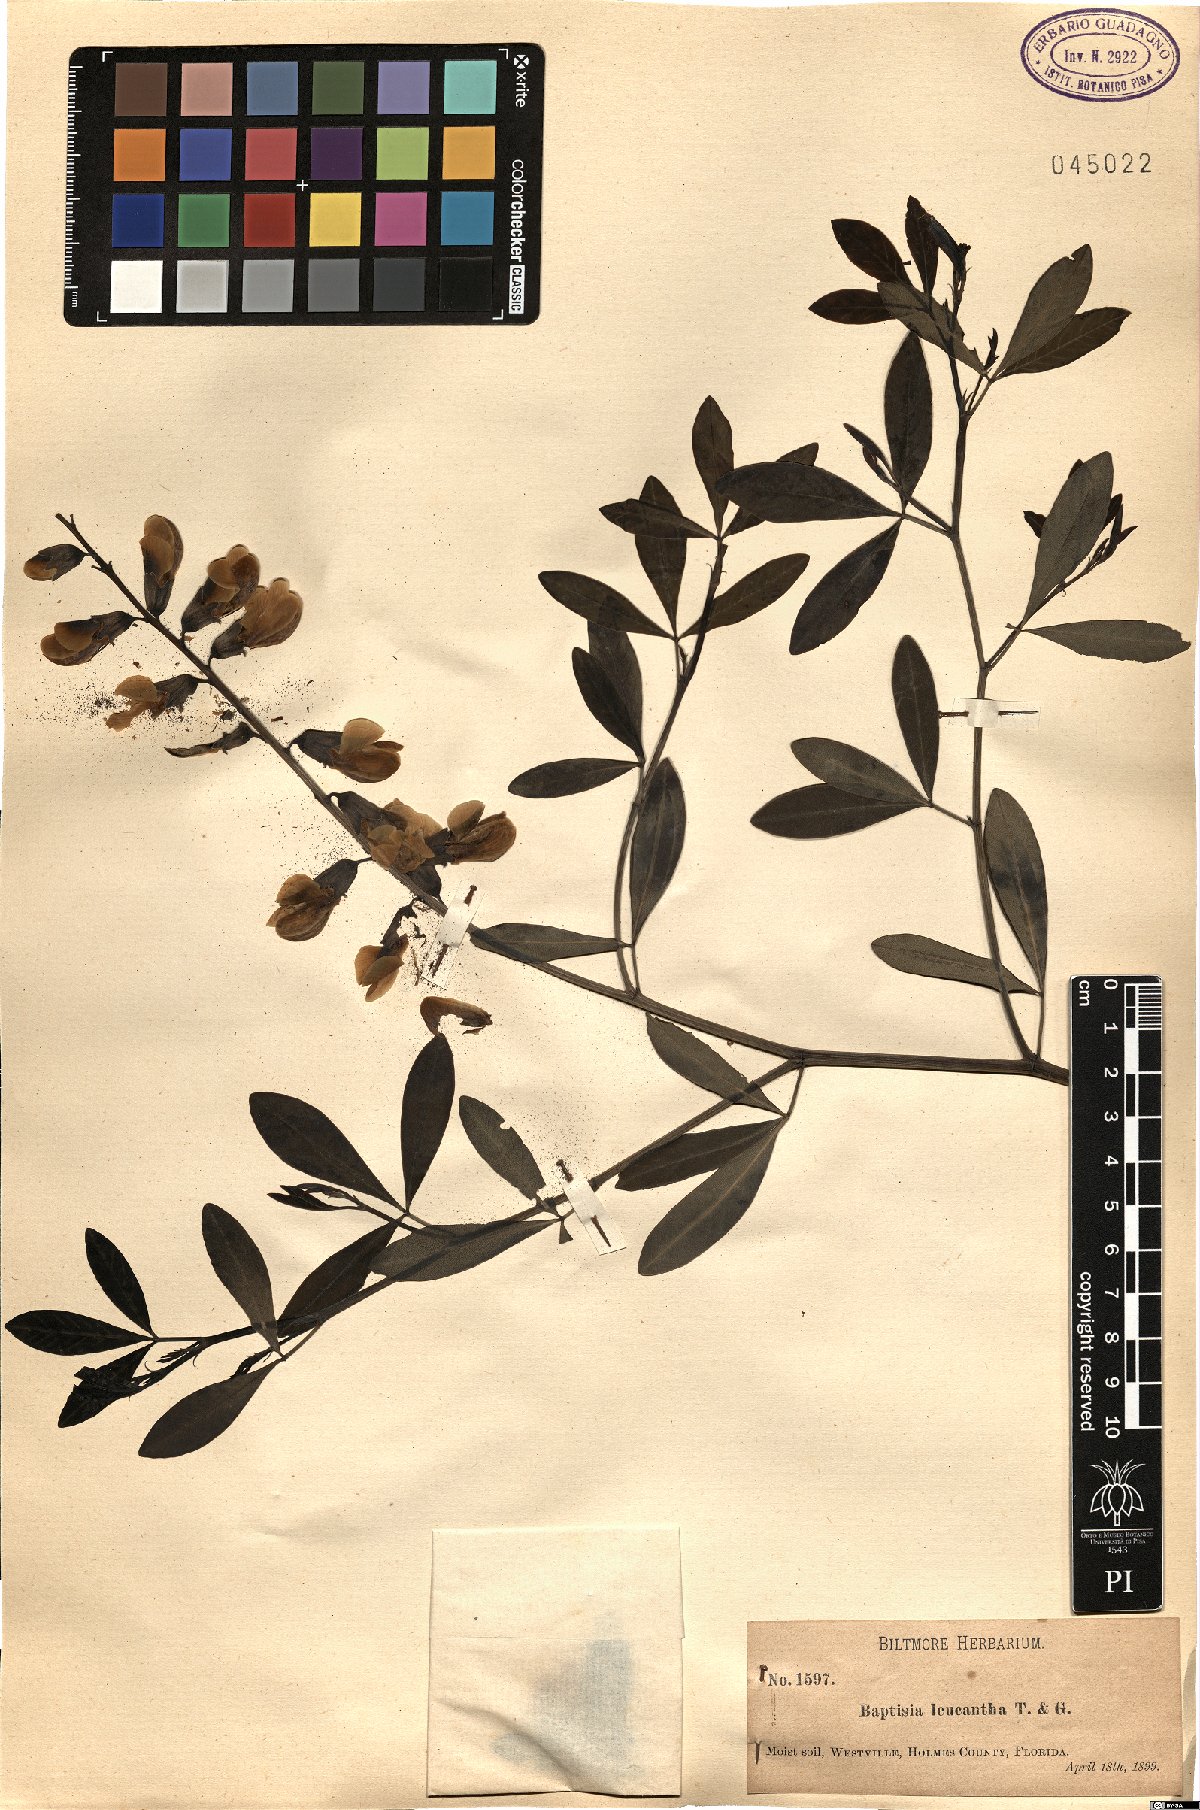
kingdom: Plantae
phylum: Tracheophyta
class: Magnoliopsida
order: Fabales
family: Fabaceae
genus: Baptisia
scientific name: Baptisia alba
